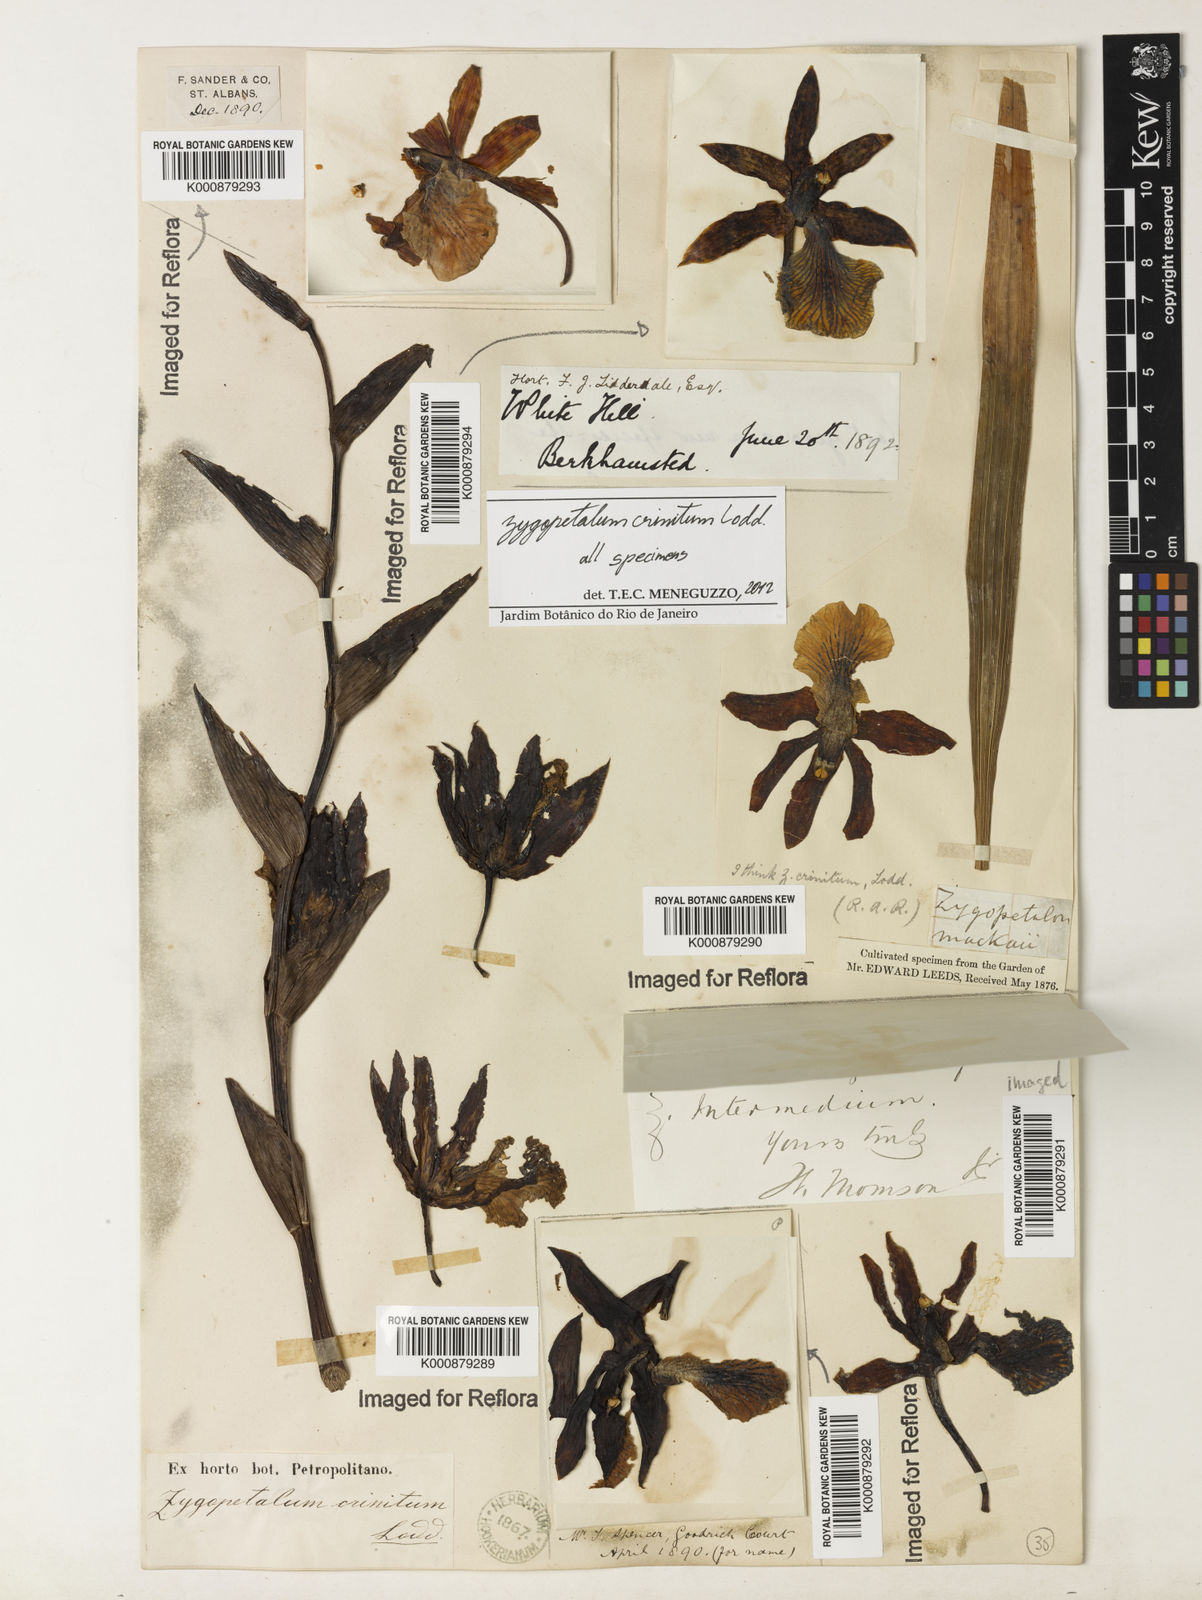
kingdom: Plantae
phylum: Tracheophyta
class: Liliopsida
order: Asparagales
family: Orchidaceae
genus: Zygopetalum
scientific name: Zygopetalum crinitum
